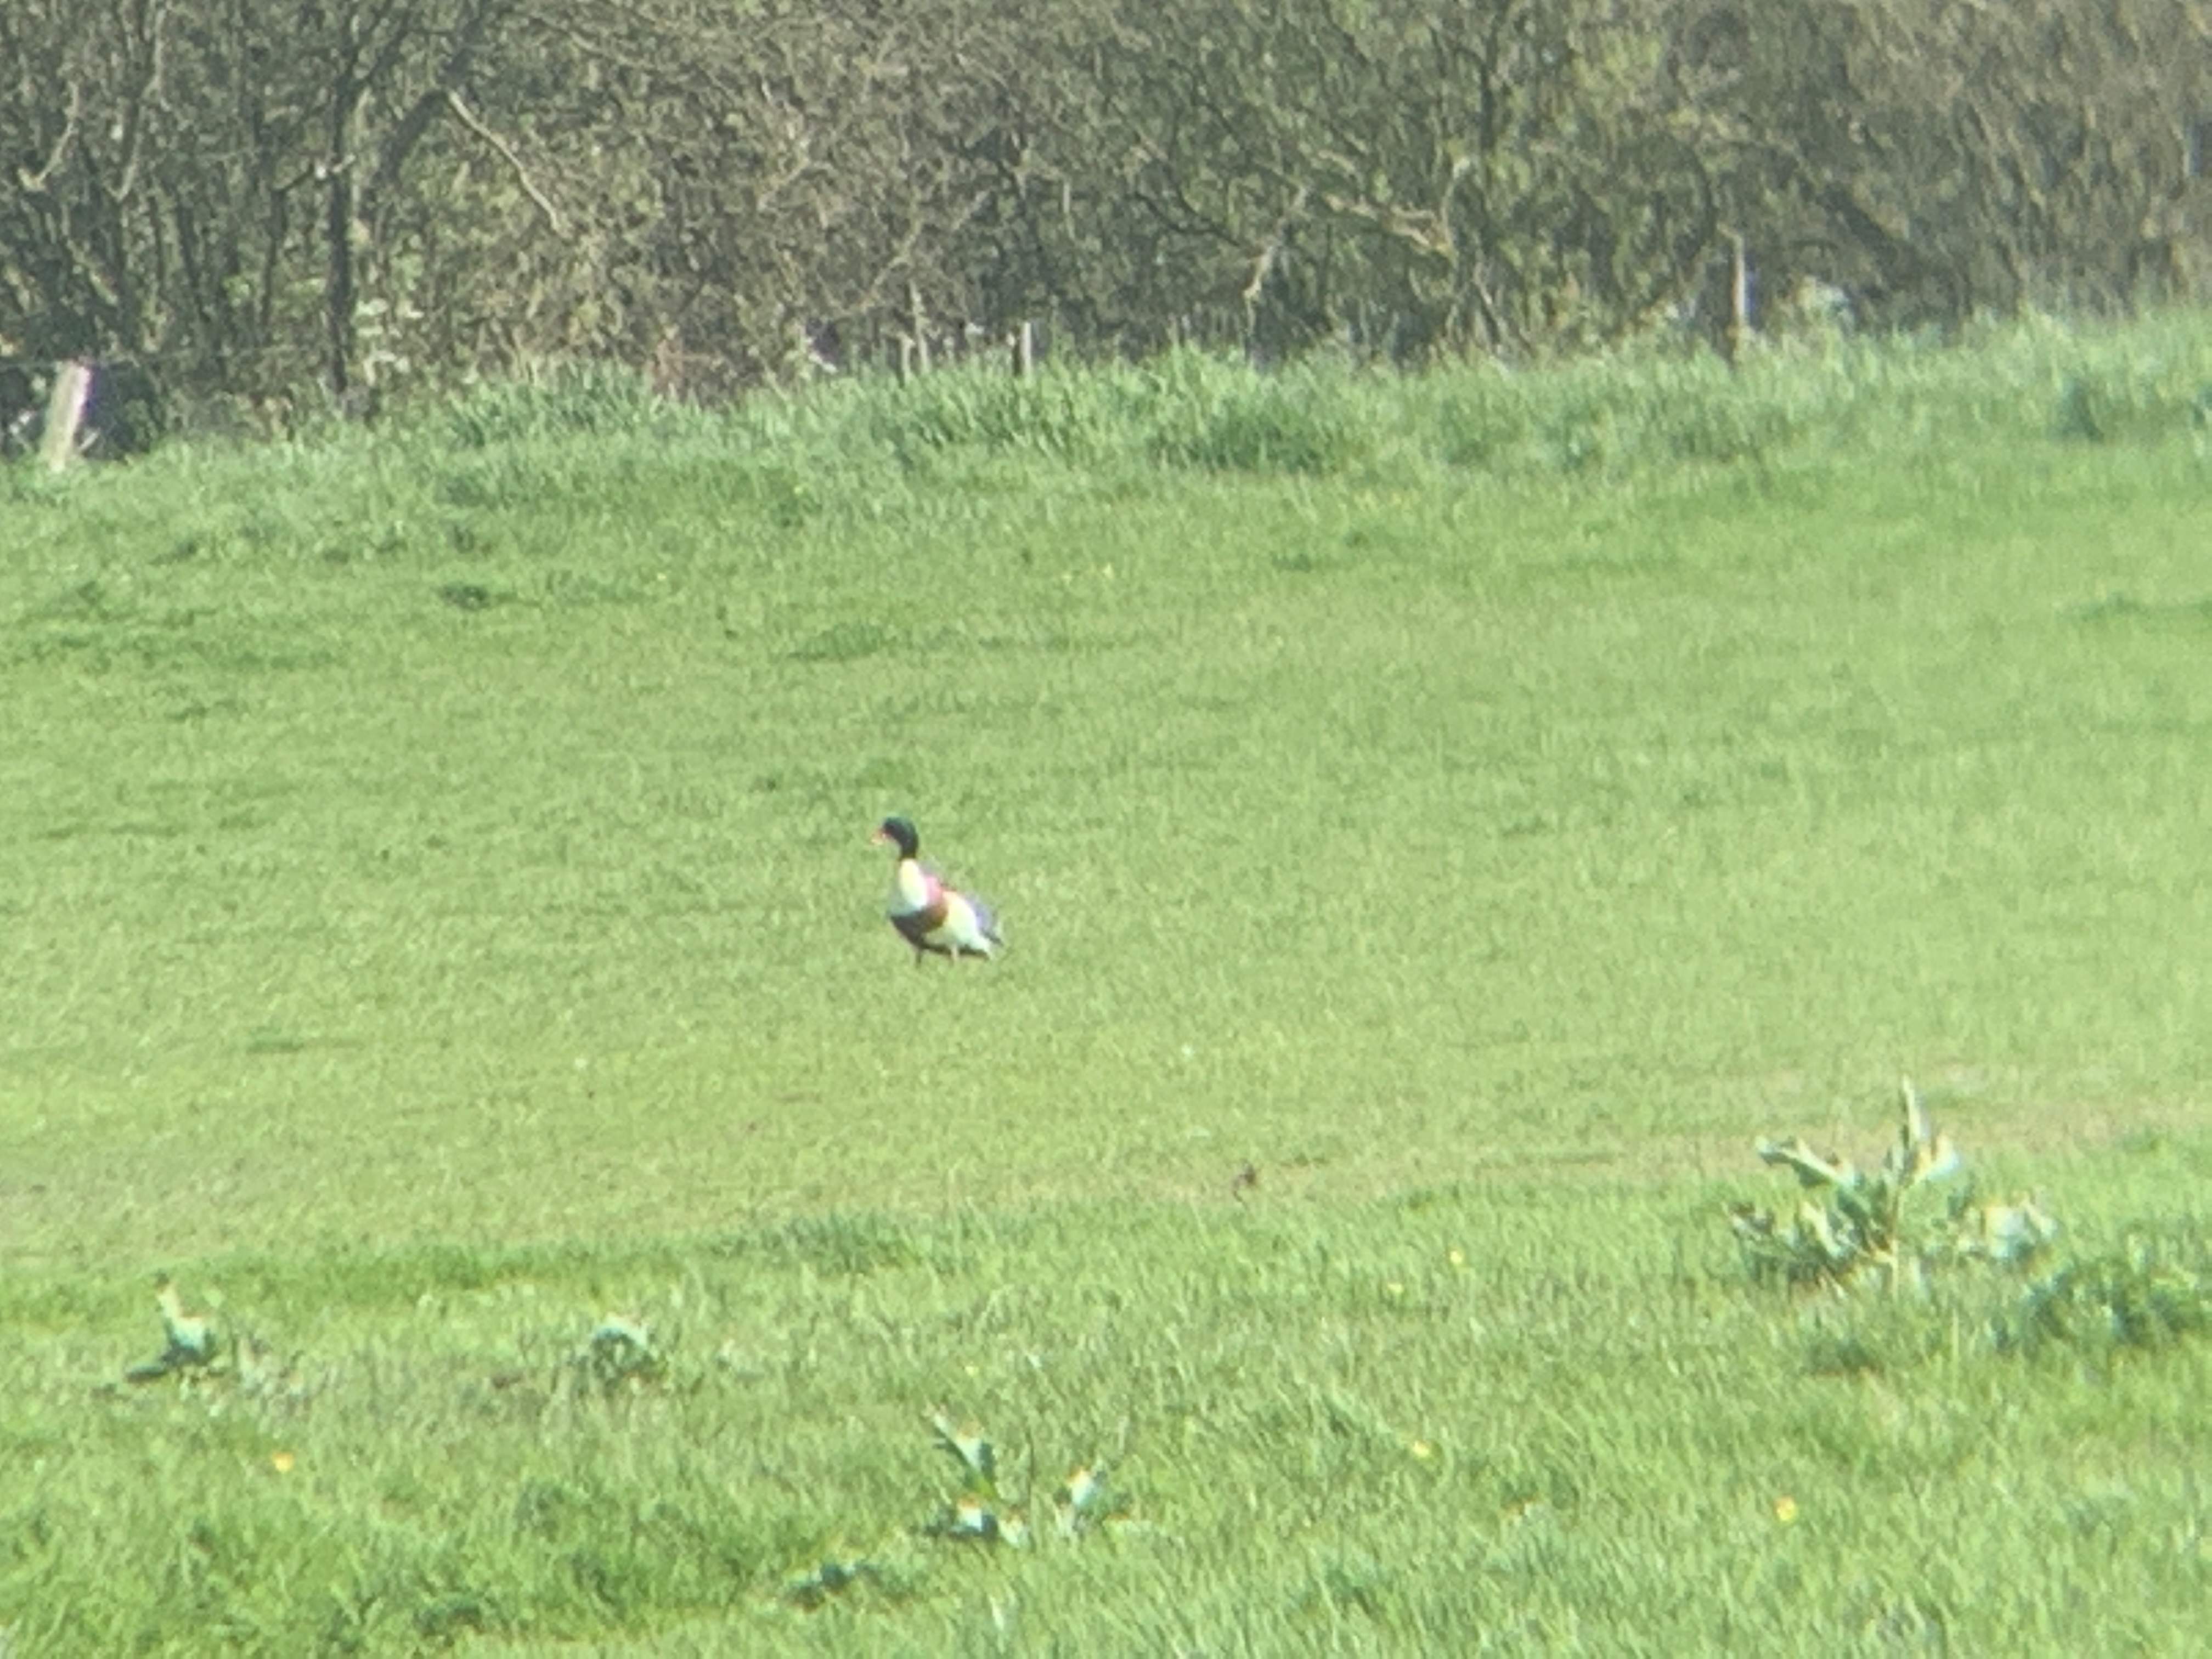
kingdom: Animalia
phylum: Chordata
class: Aves
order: Anseriformes
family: Anatidae
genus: Tadorna
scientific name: Tadorna tadorna
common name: Gravand
